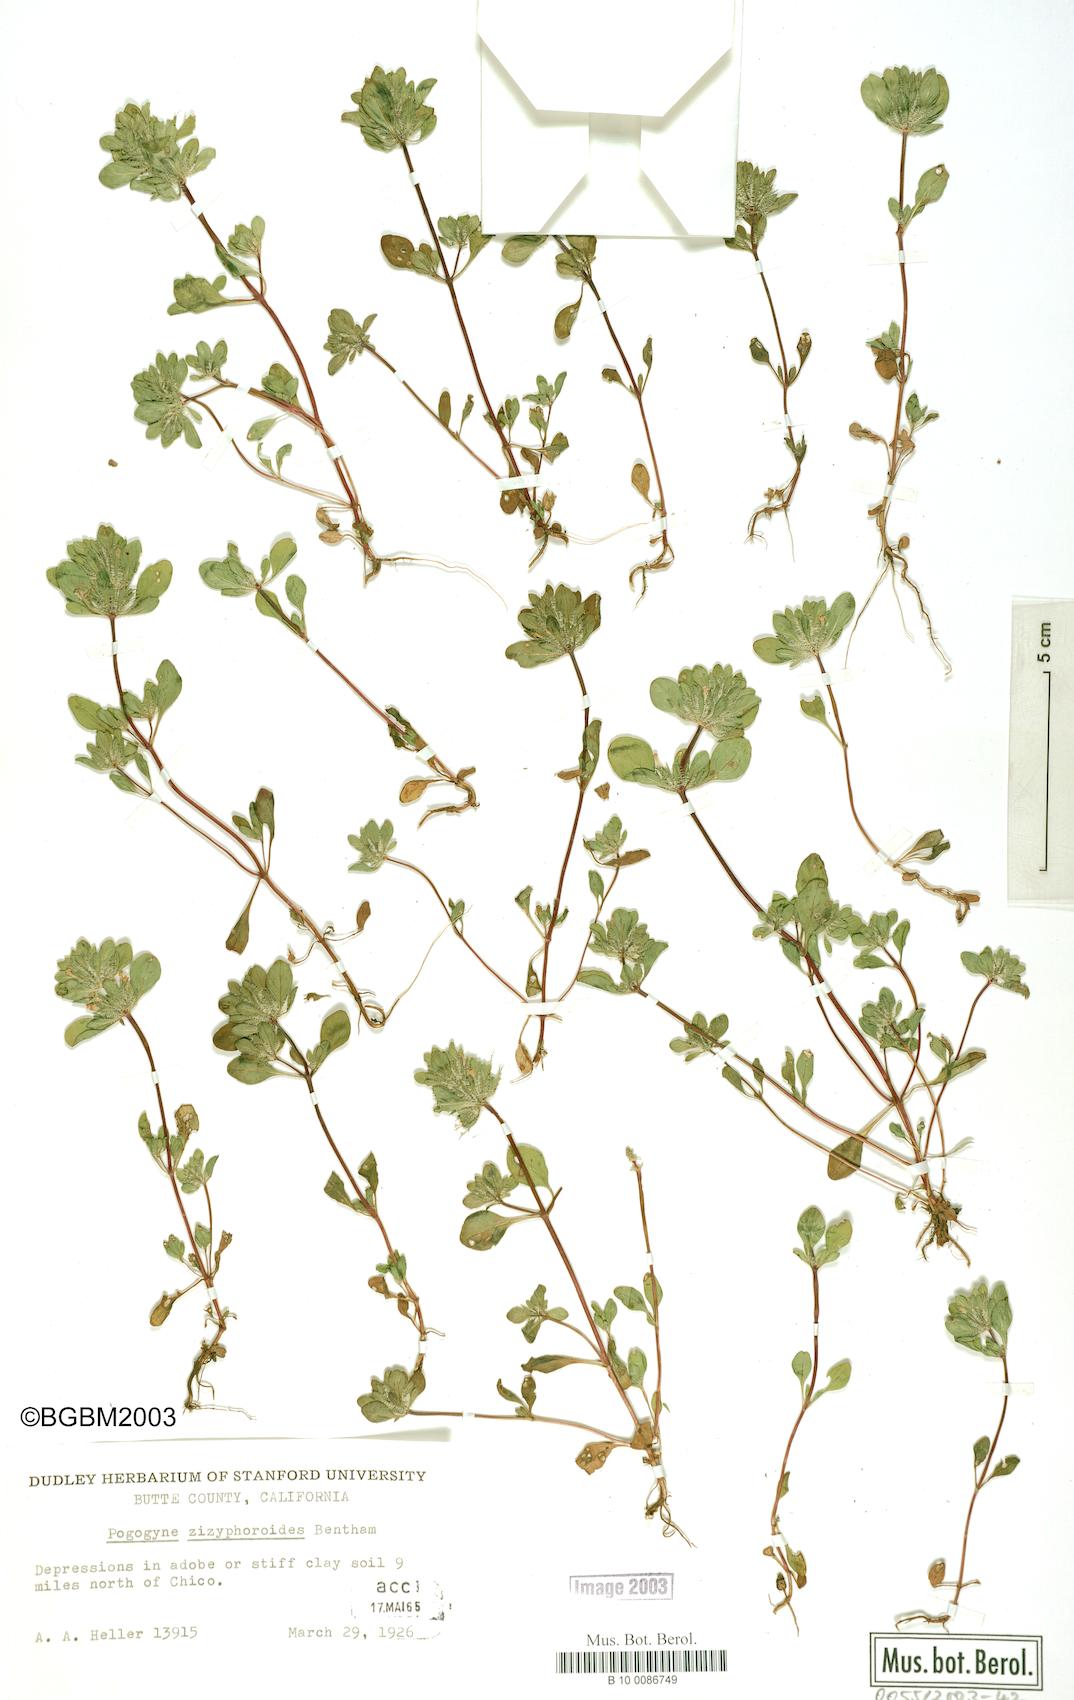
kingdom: Plantae
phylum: Tracheophyta
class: Magnoliopsida
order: Lamiales
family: Lamiaceae
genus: Pogogyne
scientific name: Pogogyne zizyphoroides
